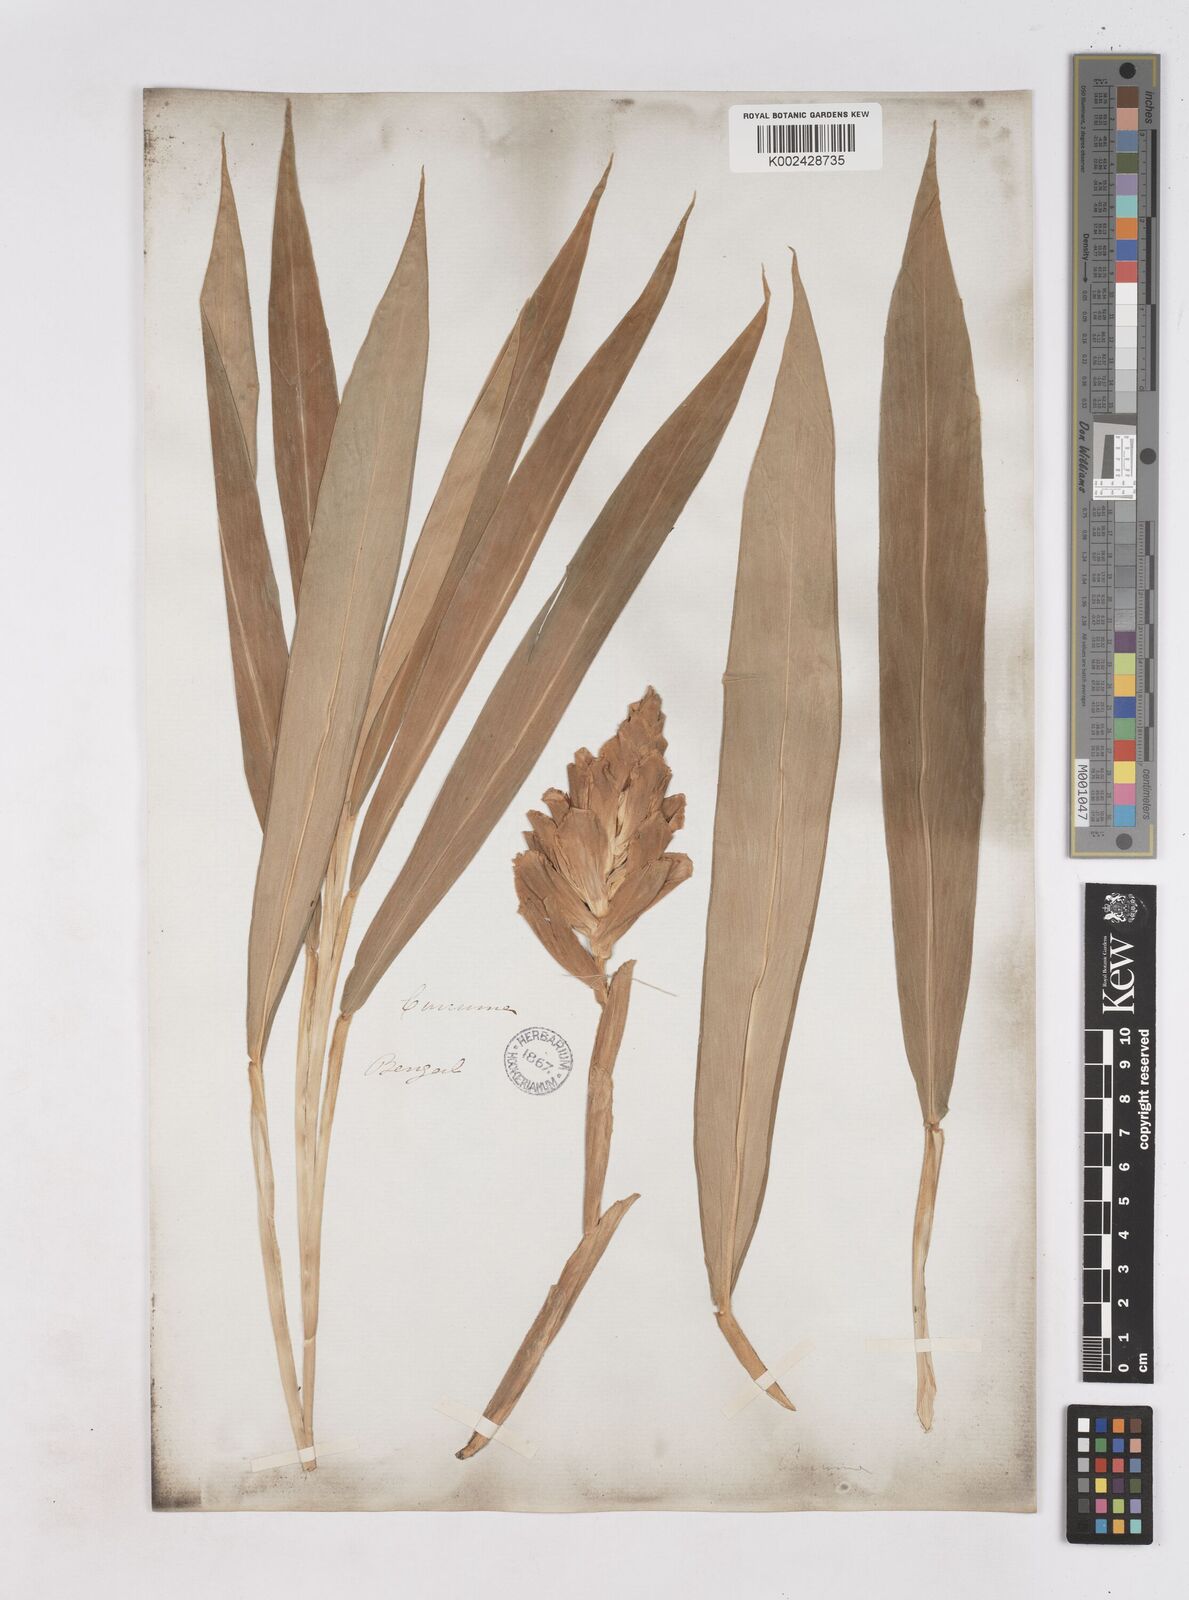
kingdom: Plantae
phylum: Tracheophyta
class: Liliopsida
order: Zingiberales
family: Zingiberaceae
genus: Zingiber
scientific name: Zingiber montanum
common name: Bengal ginger
